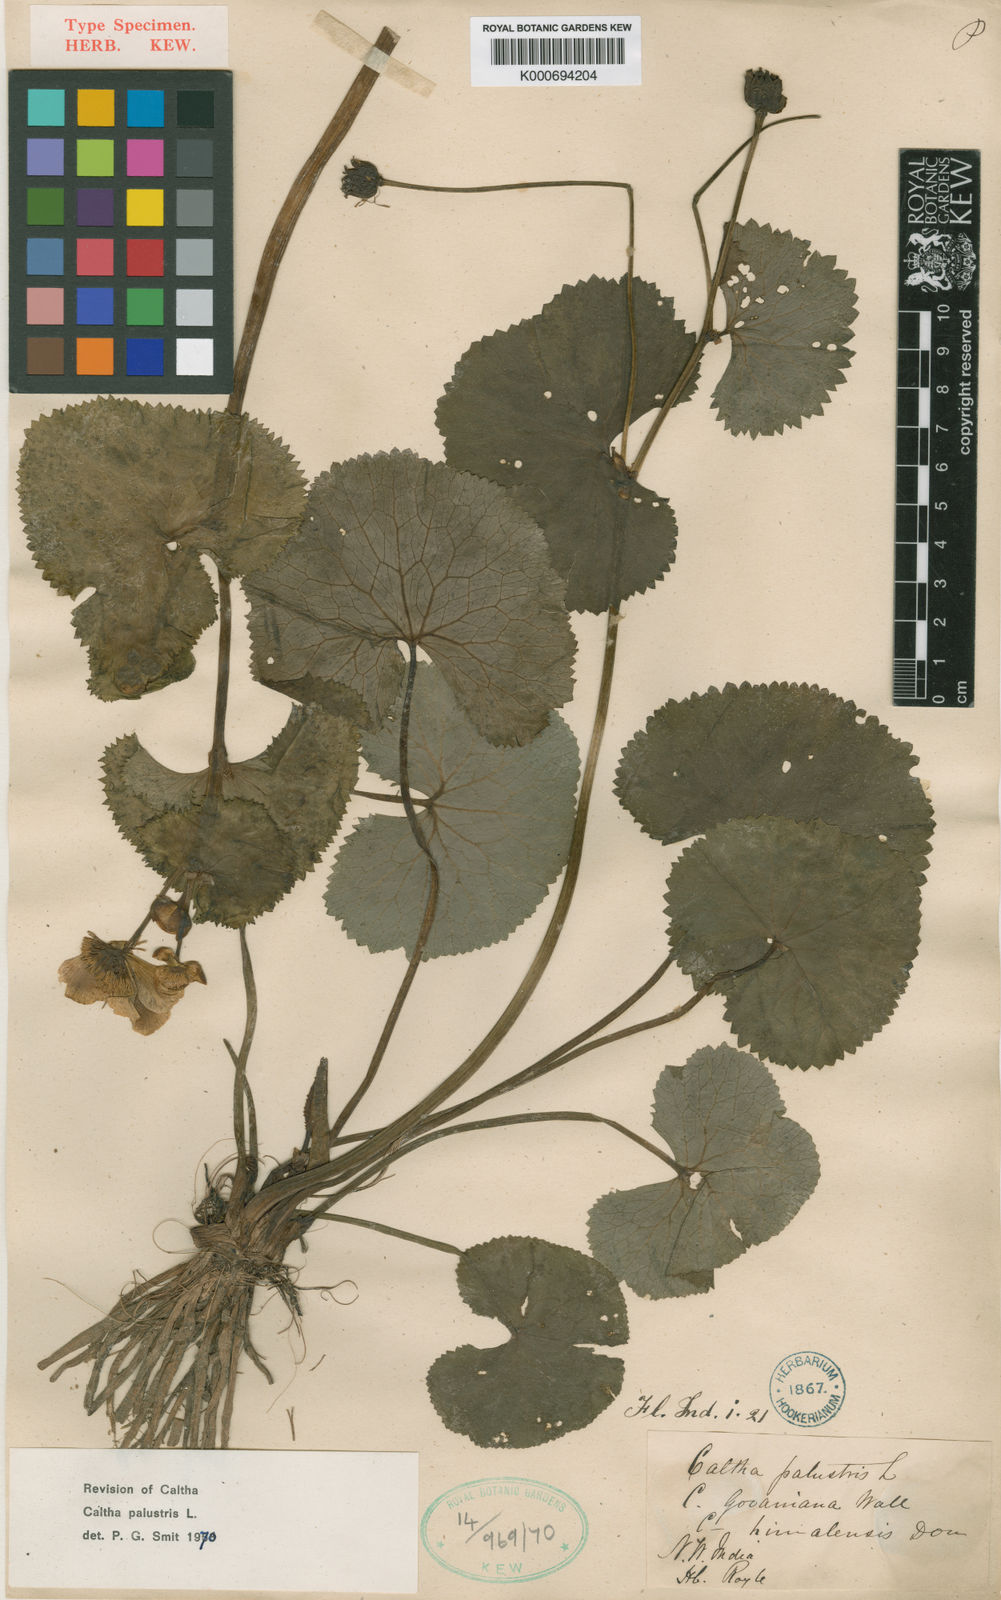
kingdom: Plantae
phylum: Tracheophyta
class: Magnoliopsida
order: Ranunculales
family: Ranunculaceae
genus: Caltha
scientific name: Caltha palustris
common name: Marsh marigold
